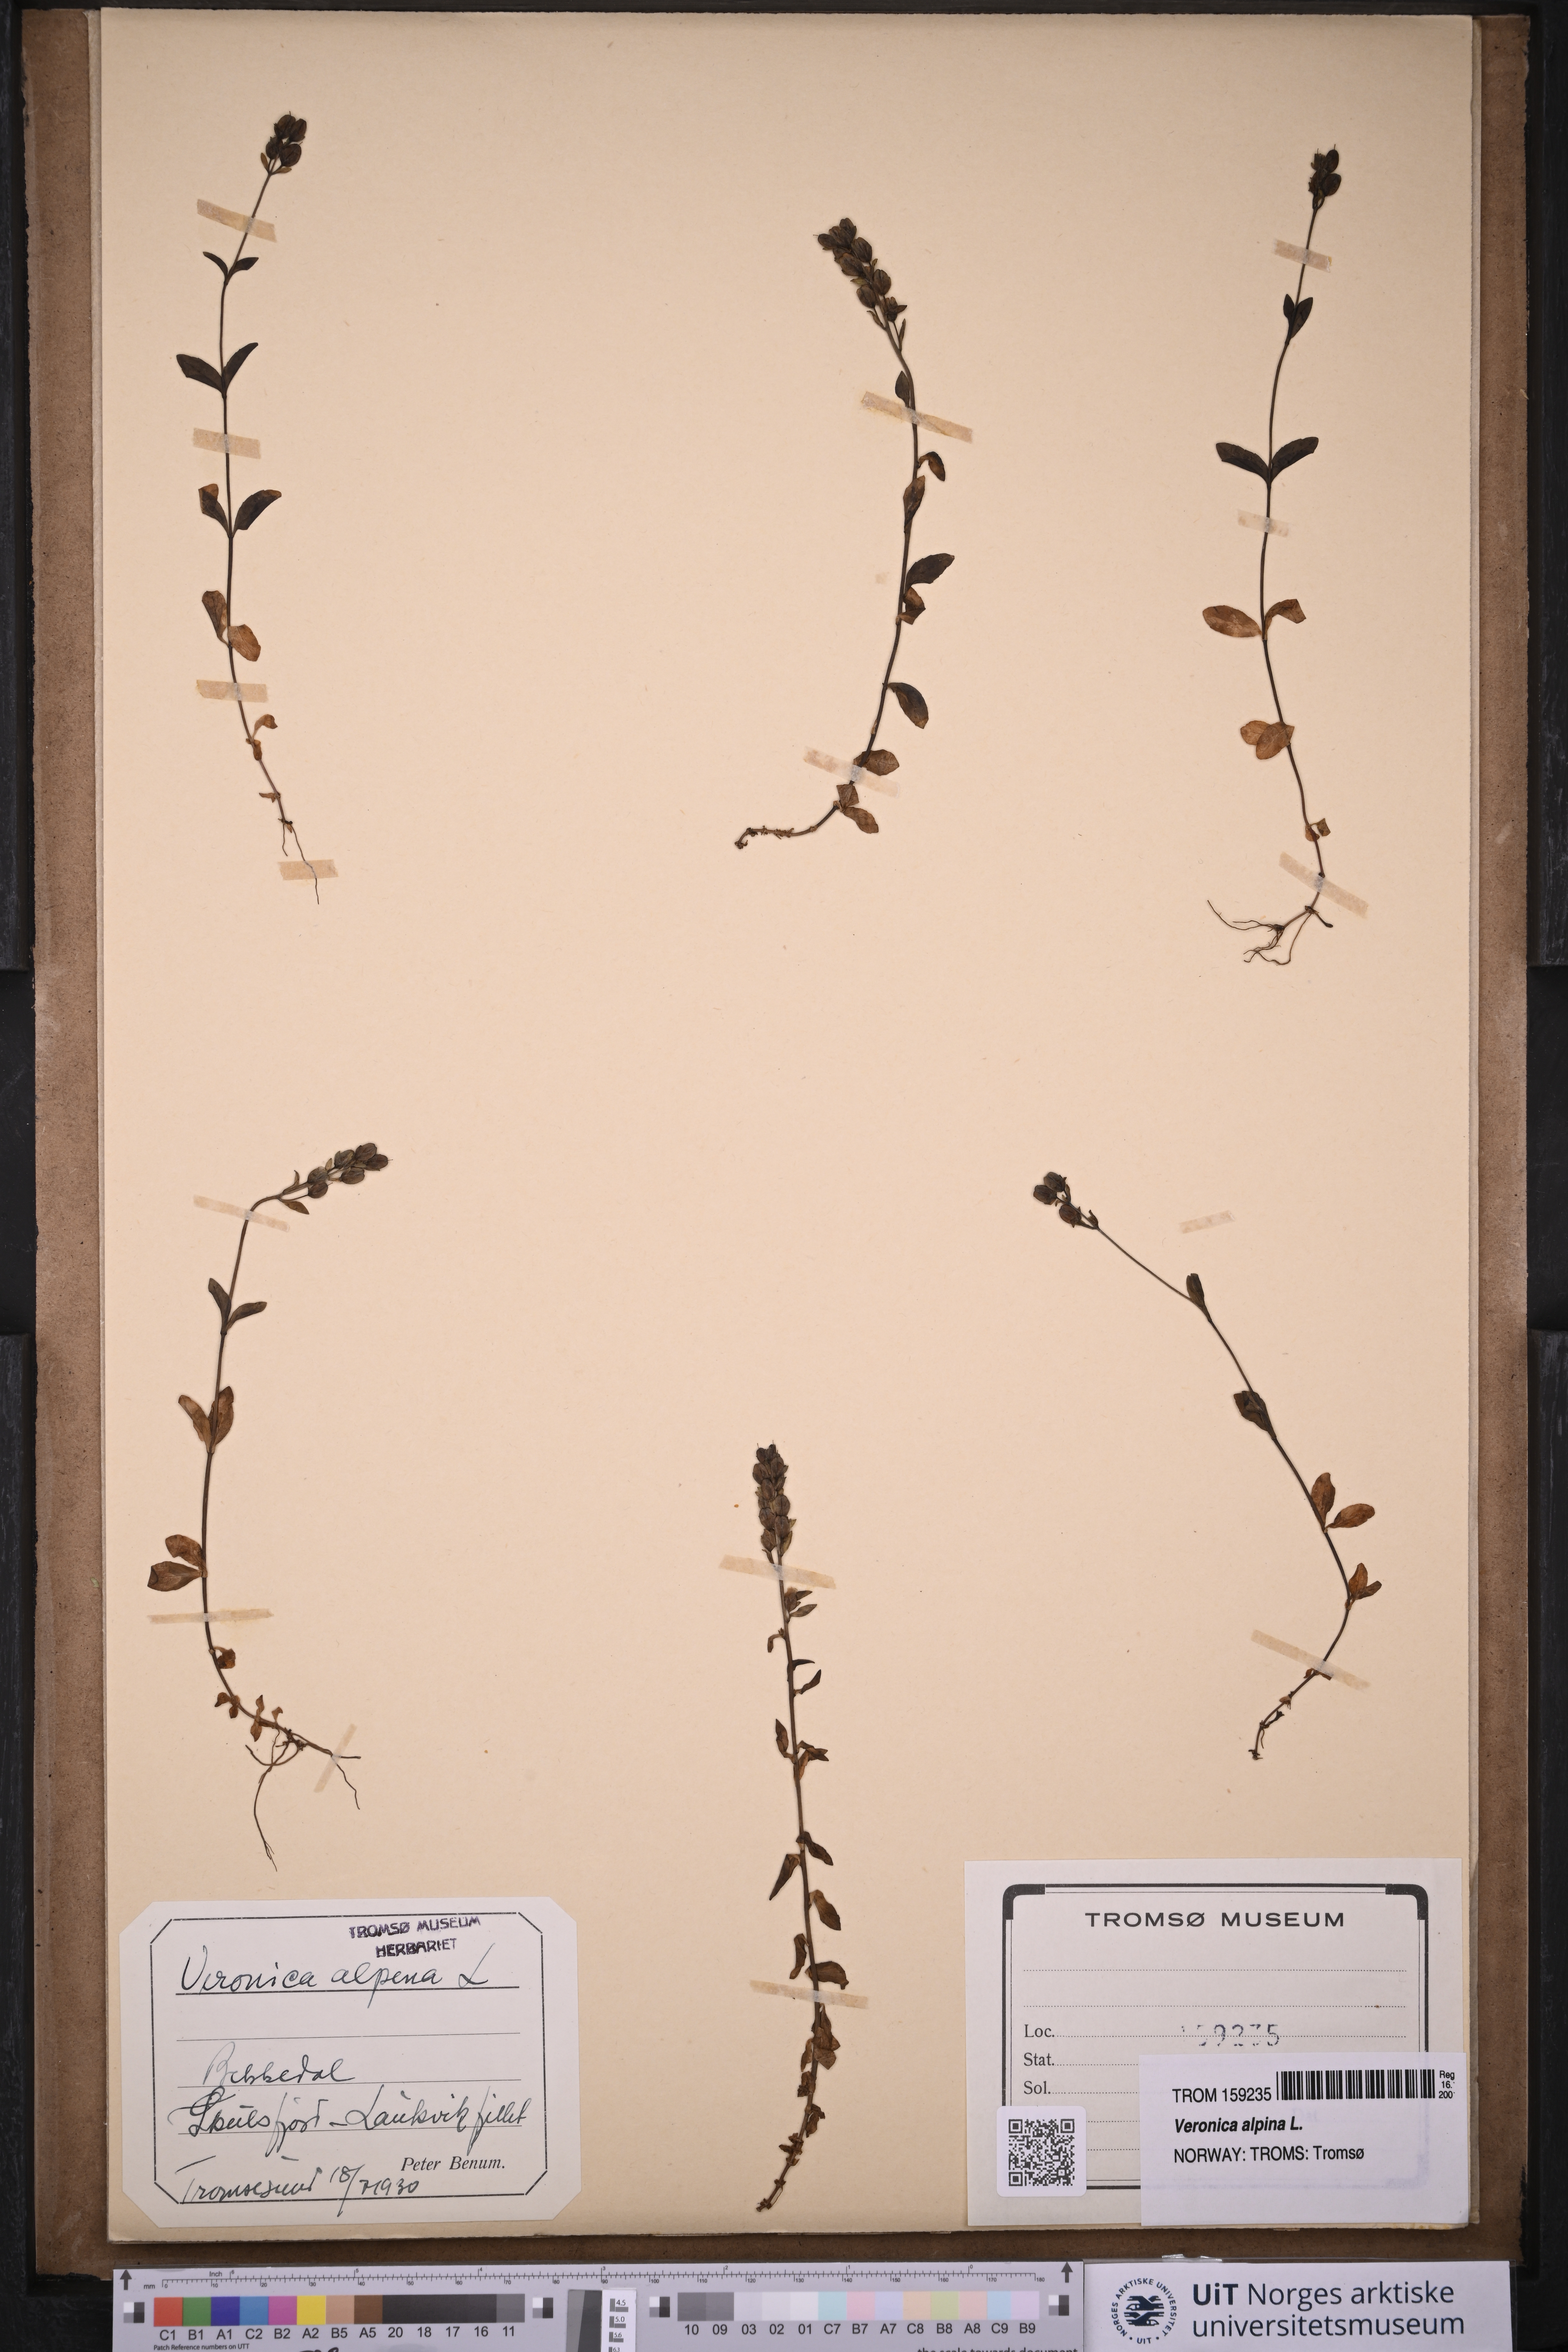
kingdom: Plantae
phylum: Tracheophyta
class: Magnoliopsida
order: Lamiales
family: Plantaginaceae
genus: Veronica
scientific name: Veronica alpina
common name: Alpine speedwell
